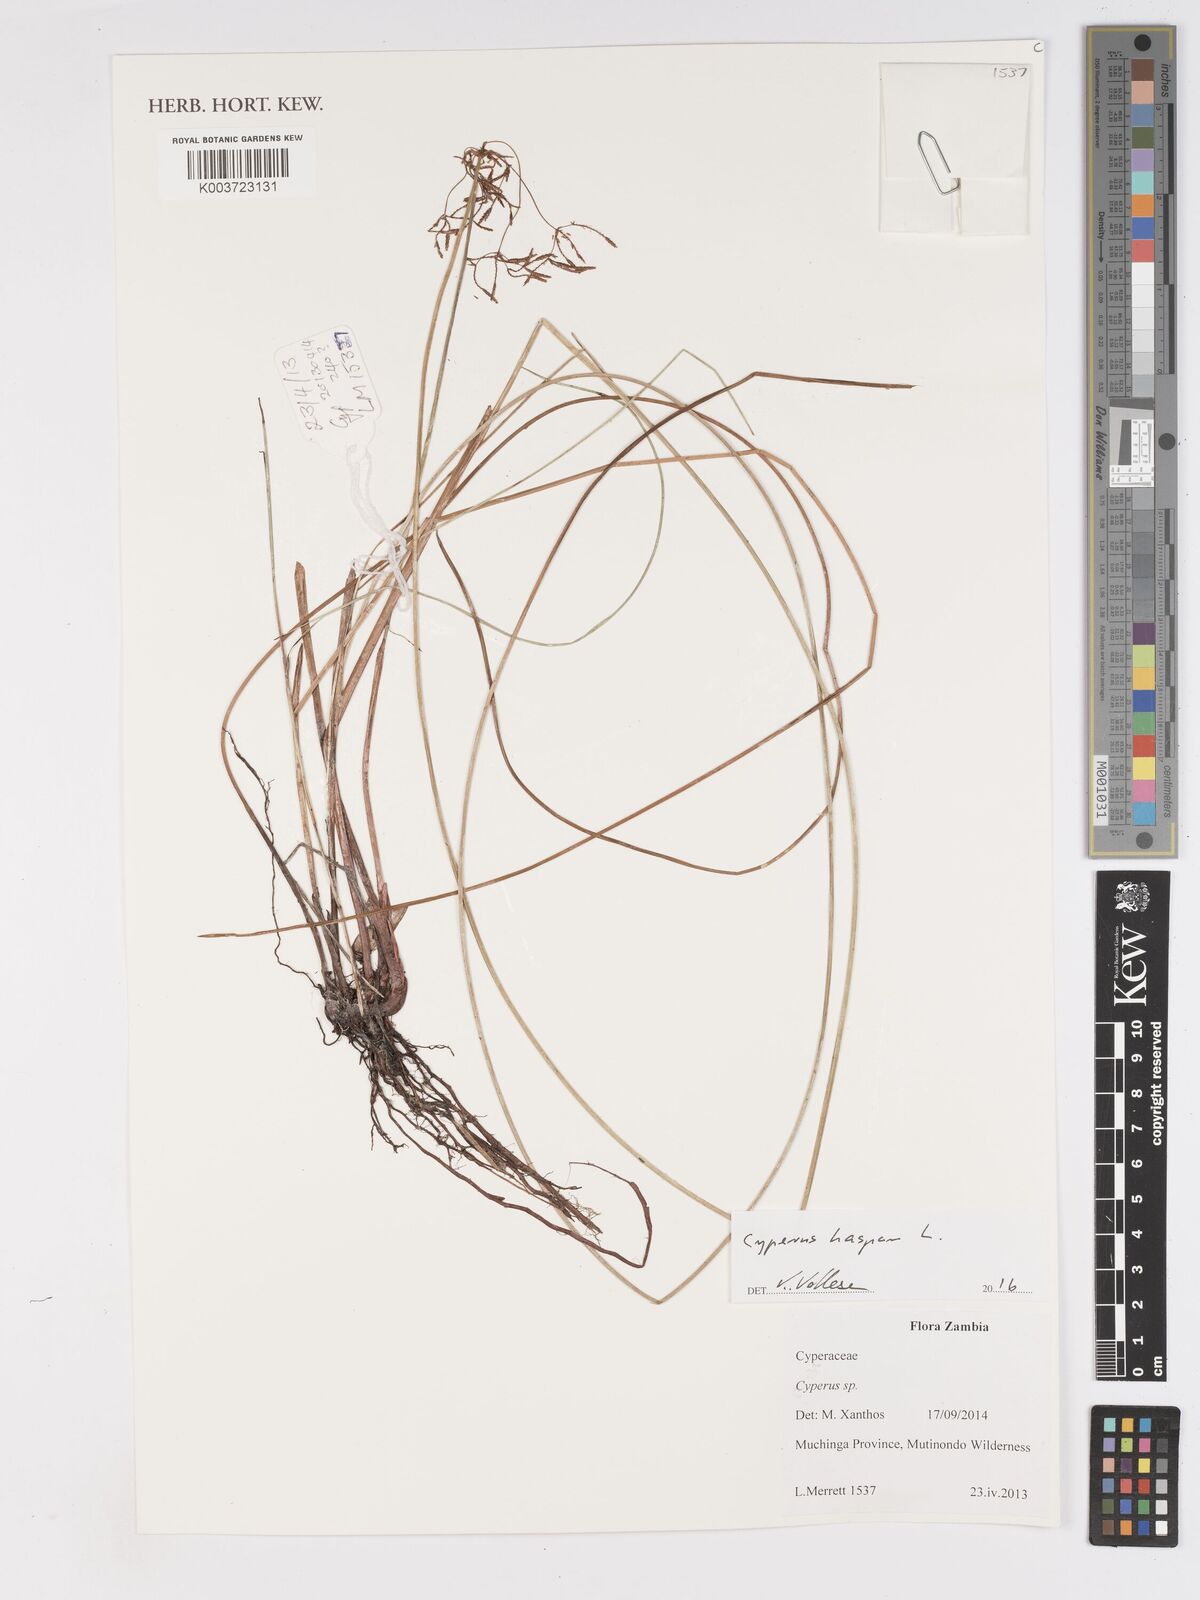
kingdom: Plantae
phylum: Tracheophyta
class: Liliopsida
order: Poales
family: Cyperaceae
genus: Cyperus
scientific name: Cyperus haspan
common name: Haspan flatsedge
